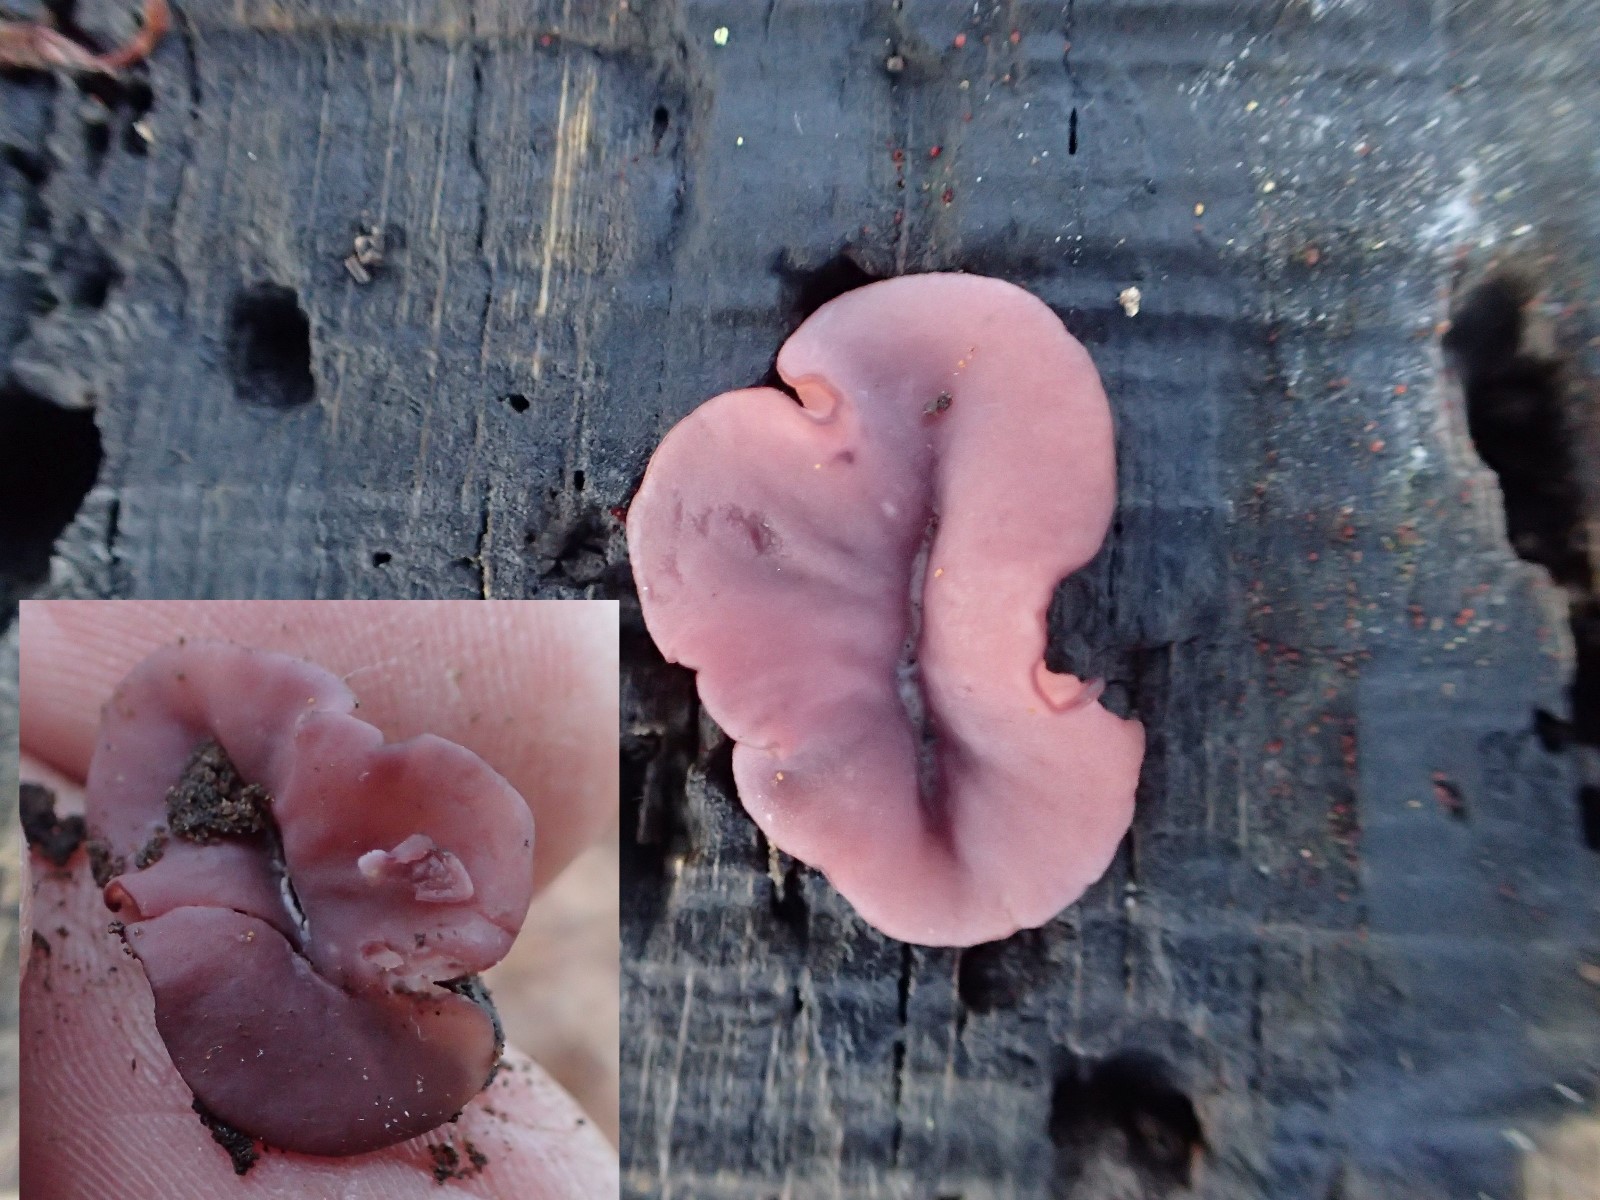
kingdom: Fungi
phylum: Ascomycota
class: Leotiomycetes
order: Helotiales
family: Gelatinodiscaceae
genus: Ascocoryne
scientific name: Ascocoryne cylichnium
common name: stor sejskive
